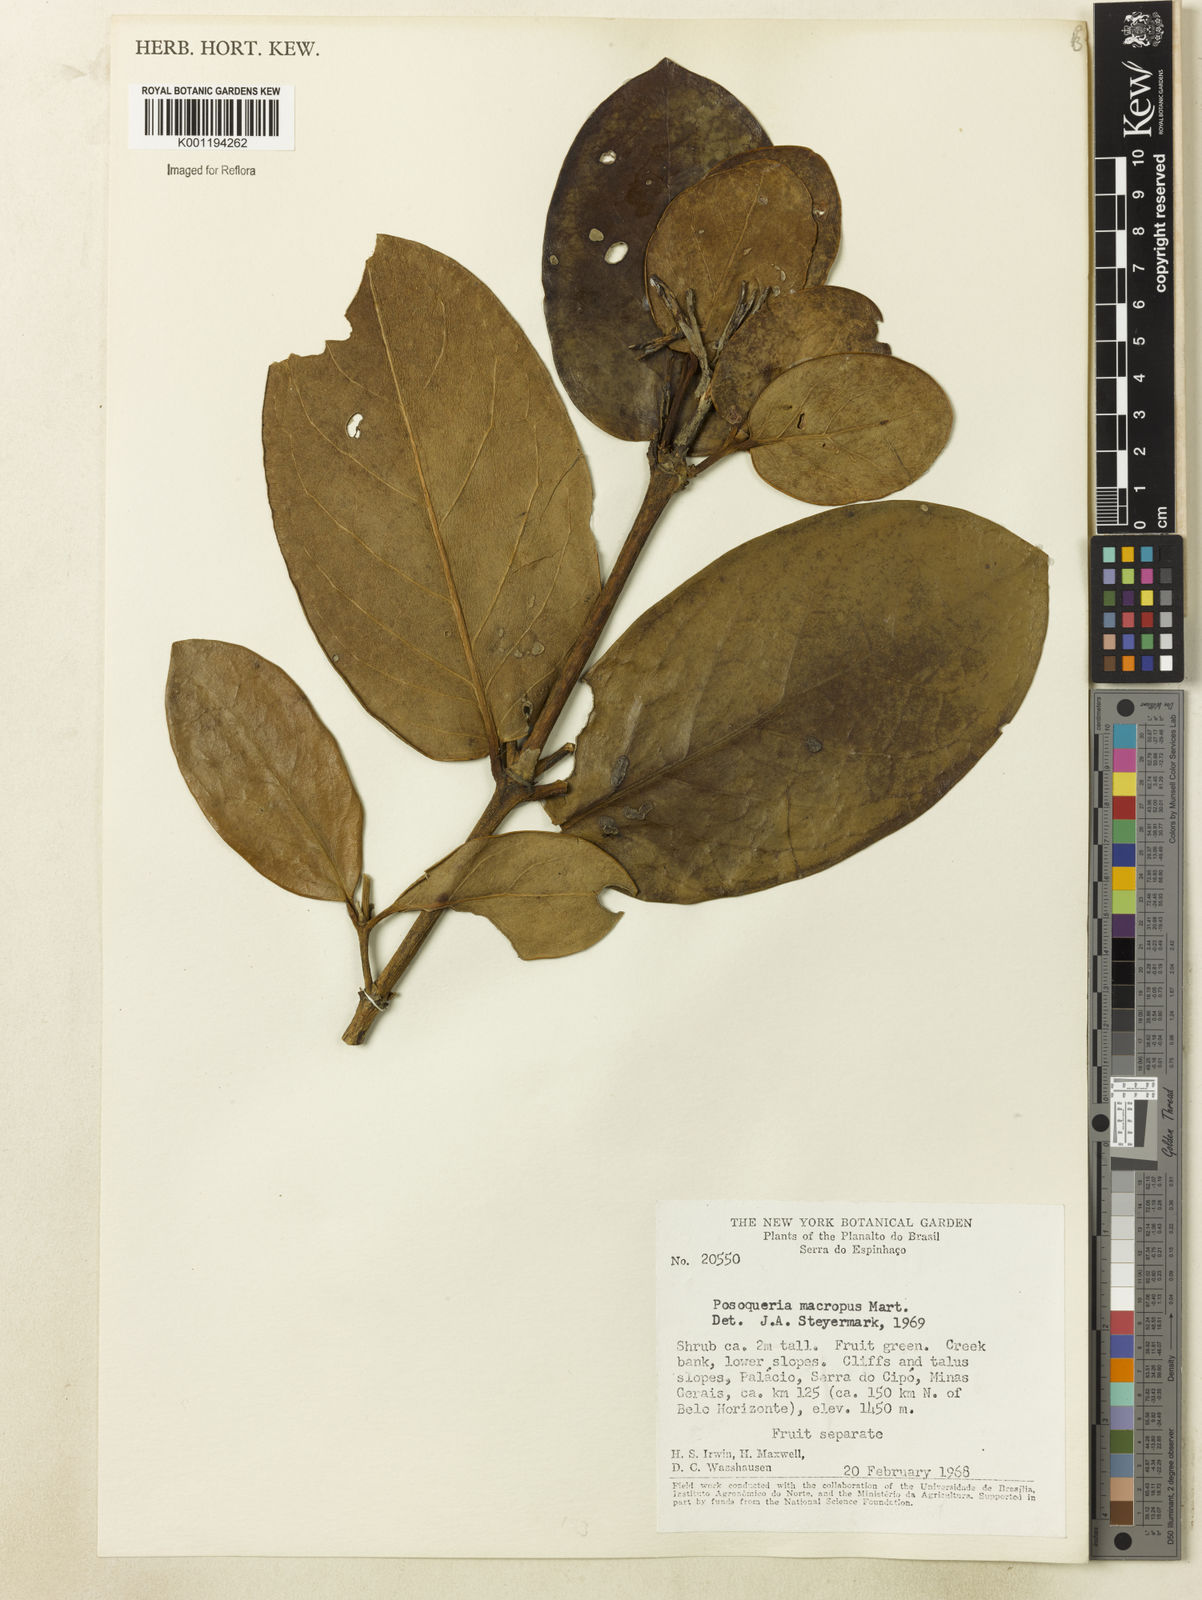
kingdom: Plantae
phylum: Tracheophyta
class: Magnoliopsida
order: Gentianales
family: Rubiaceae
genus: Posoqueria
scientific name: Posoqueria latifolia
